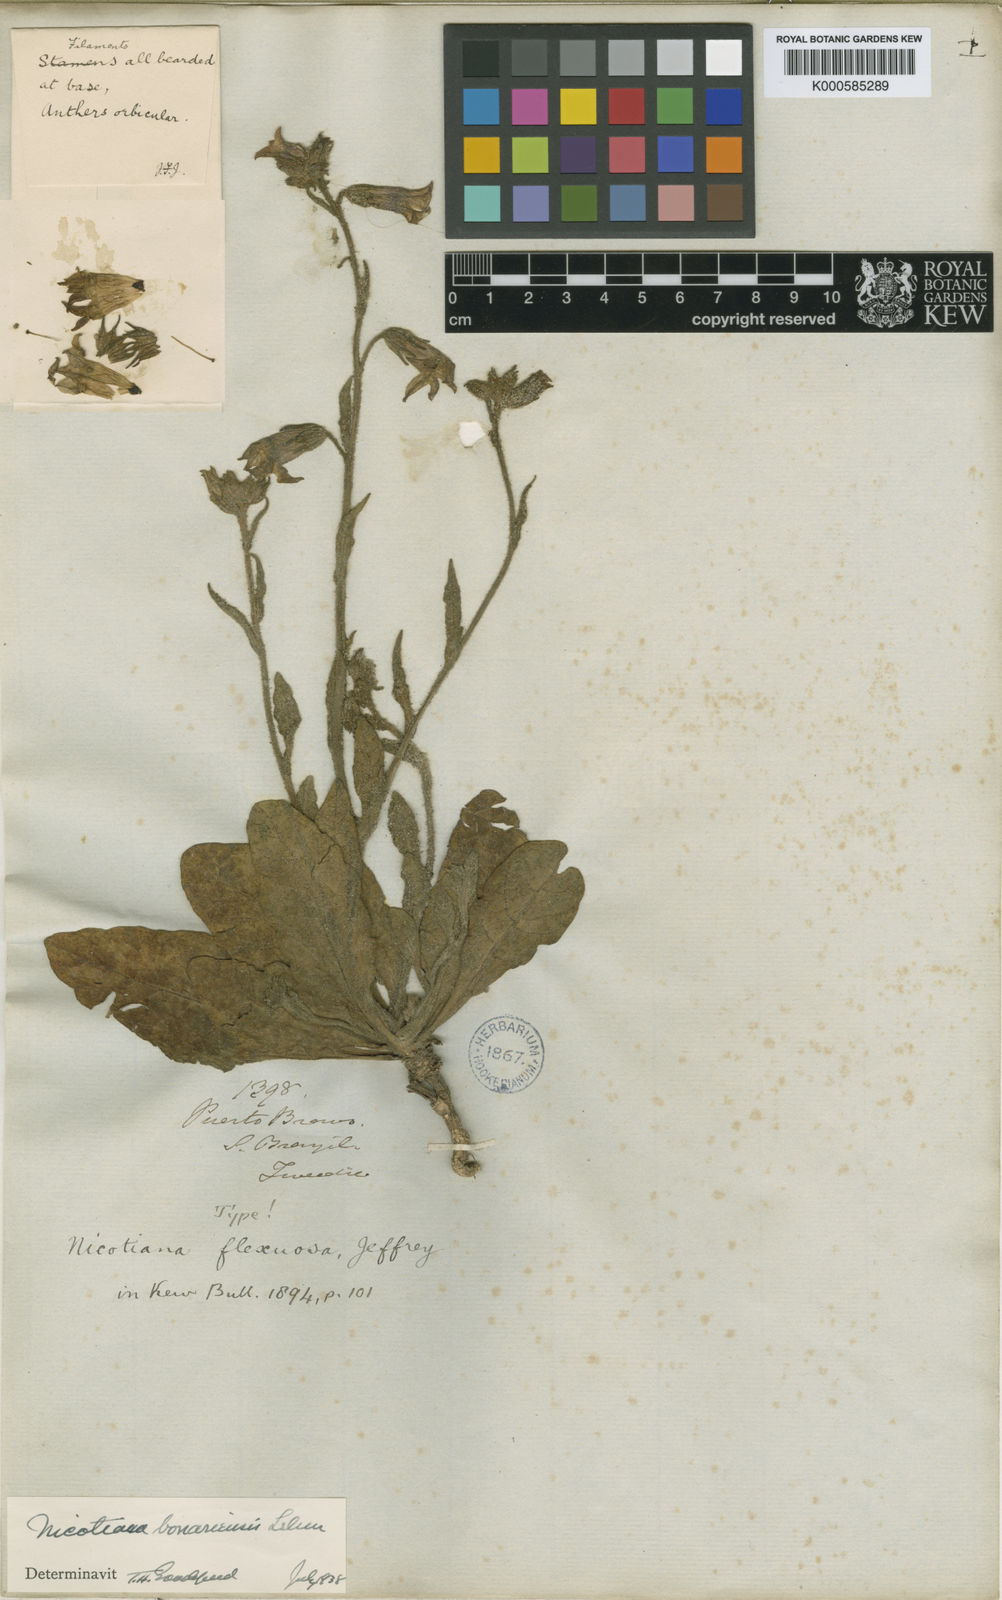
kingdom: Plantae
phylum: Tracheophyta
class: Magnoliopsida
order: Solanales
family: Solanaceae
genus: Nicotiana
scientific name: Nicotiana bonariensis
